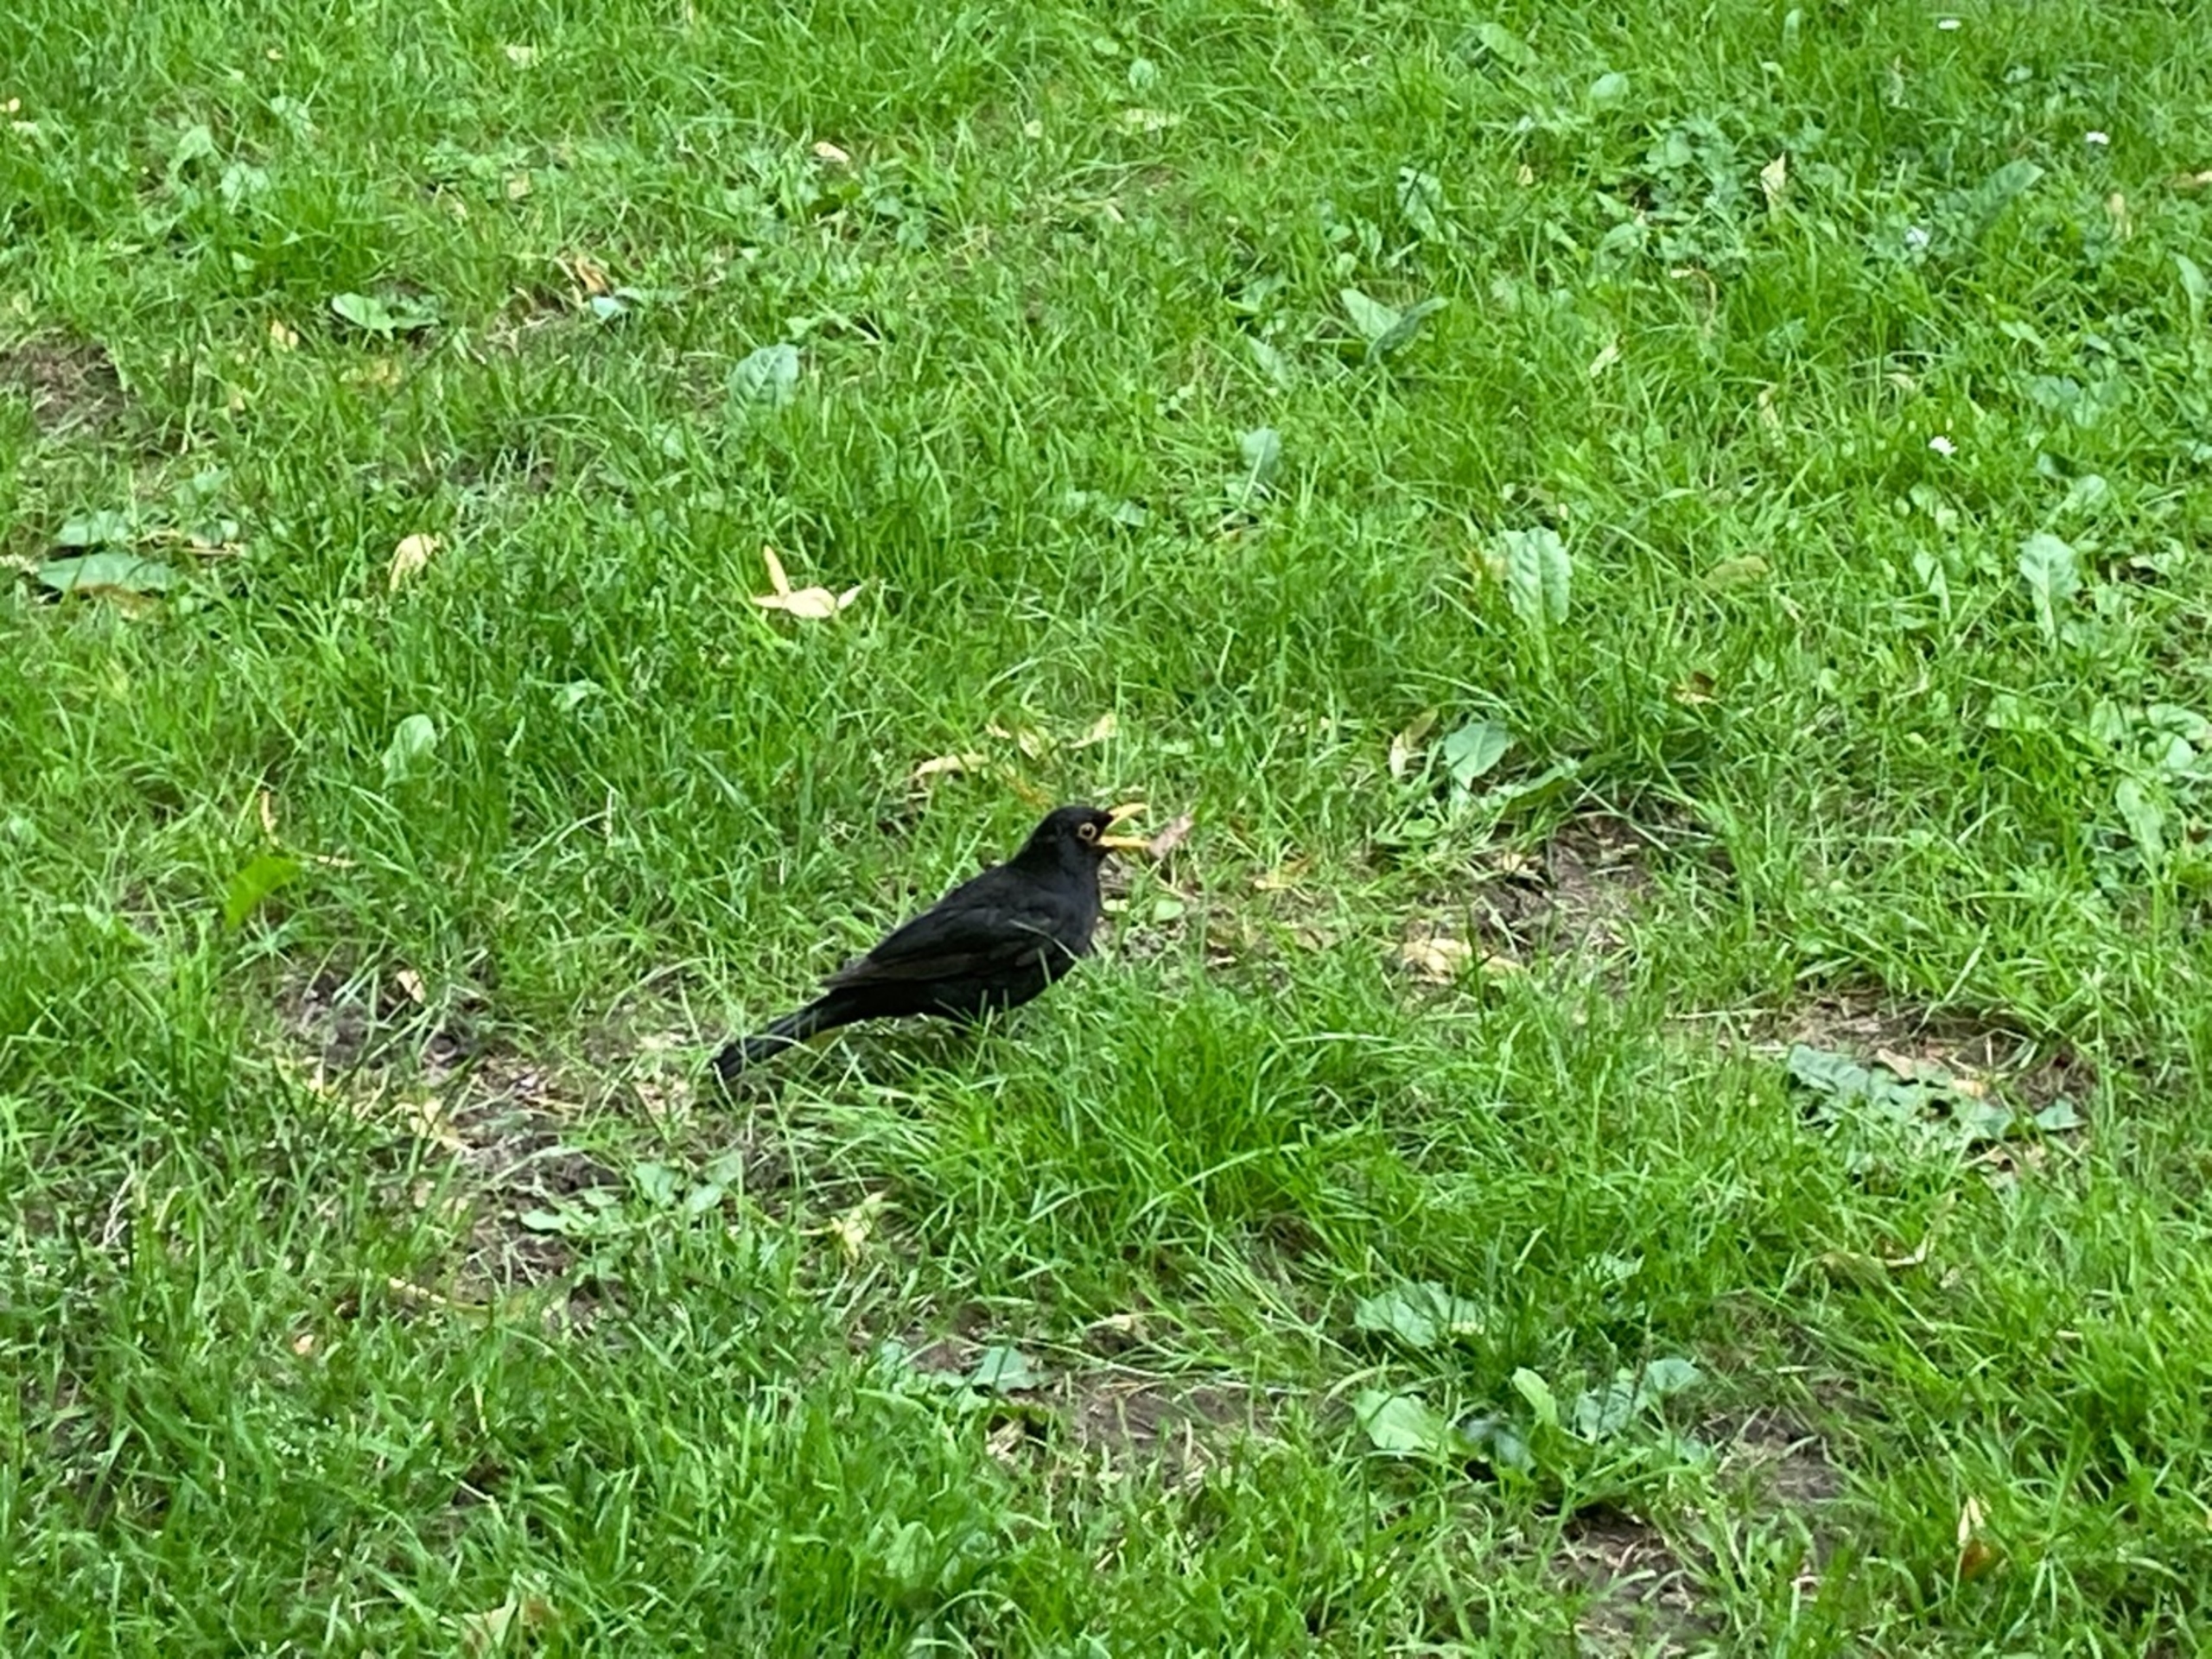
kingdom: Animalia
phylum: Chordata
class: Aves
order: Passeriformes
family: Turdidae
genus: Turdus
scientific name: Turdus merula
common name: Solsort
